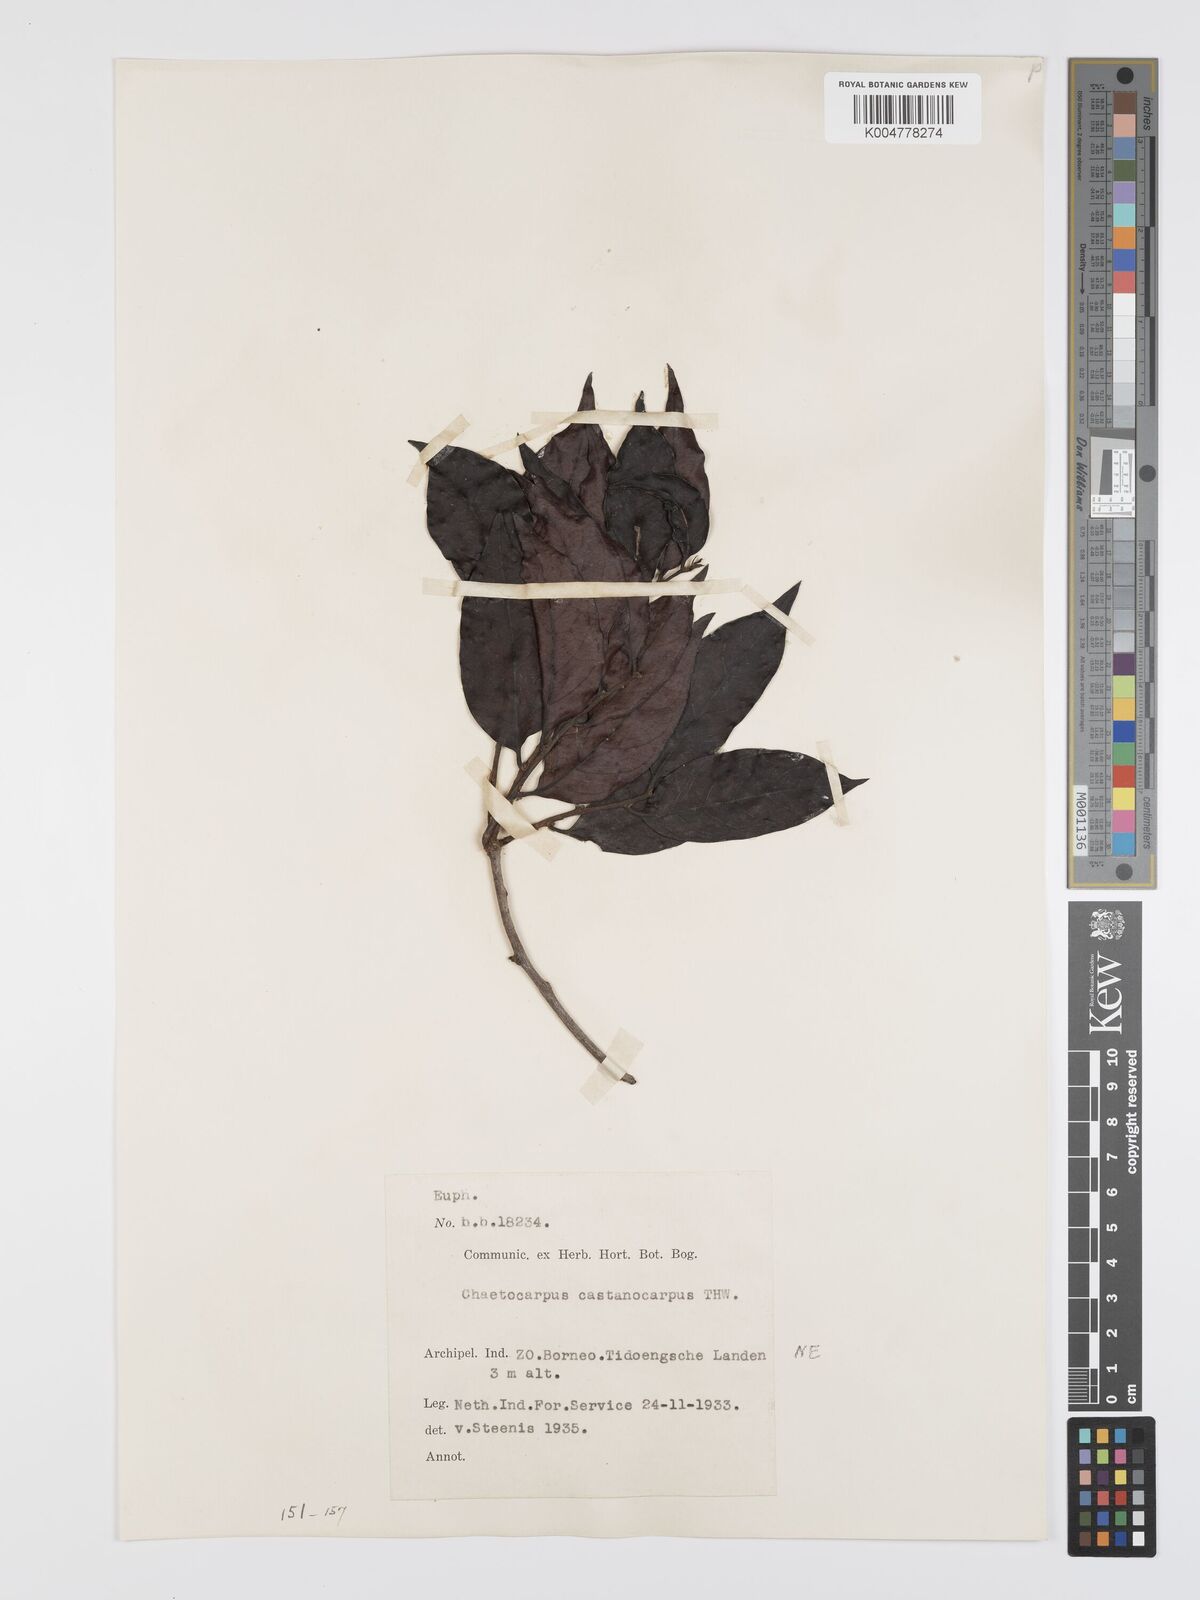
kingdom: Plantae
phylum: Tracheophyta
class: Magnoliopsida
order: Malpighiales
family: Peraceae
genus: Chaetocarpus
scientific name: Chaetocarpus castanocarpus
